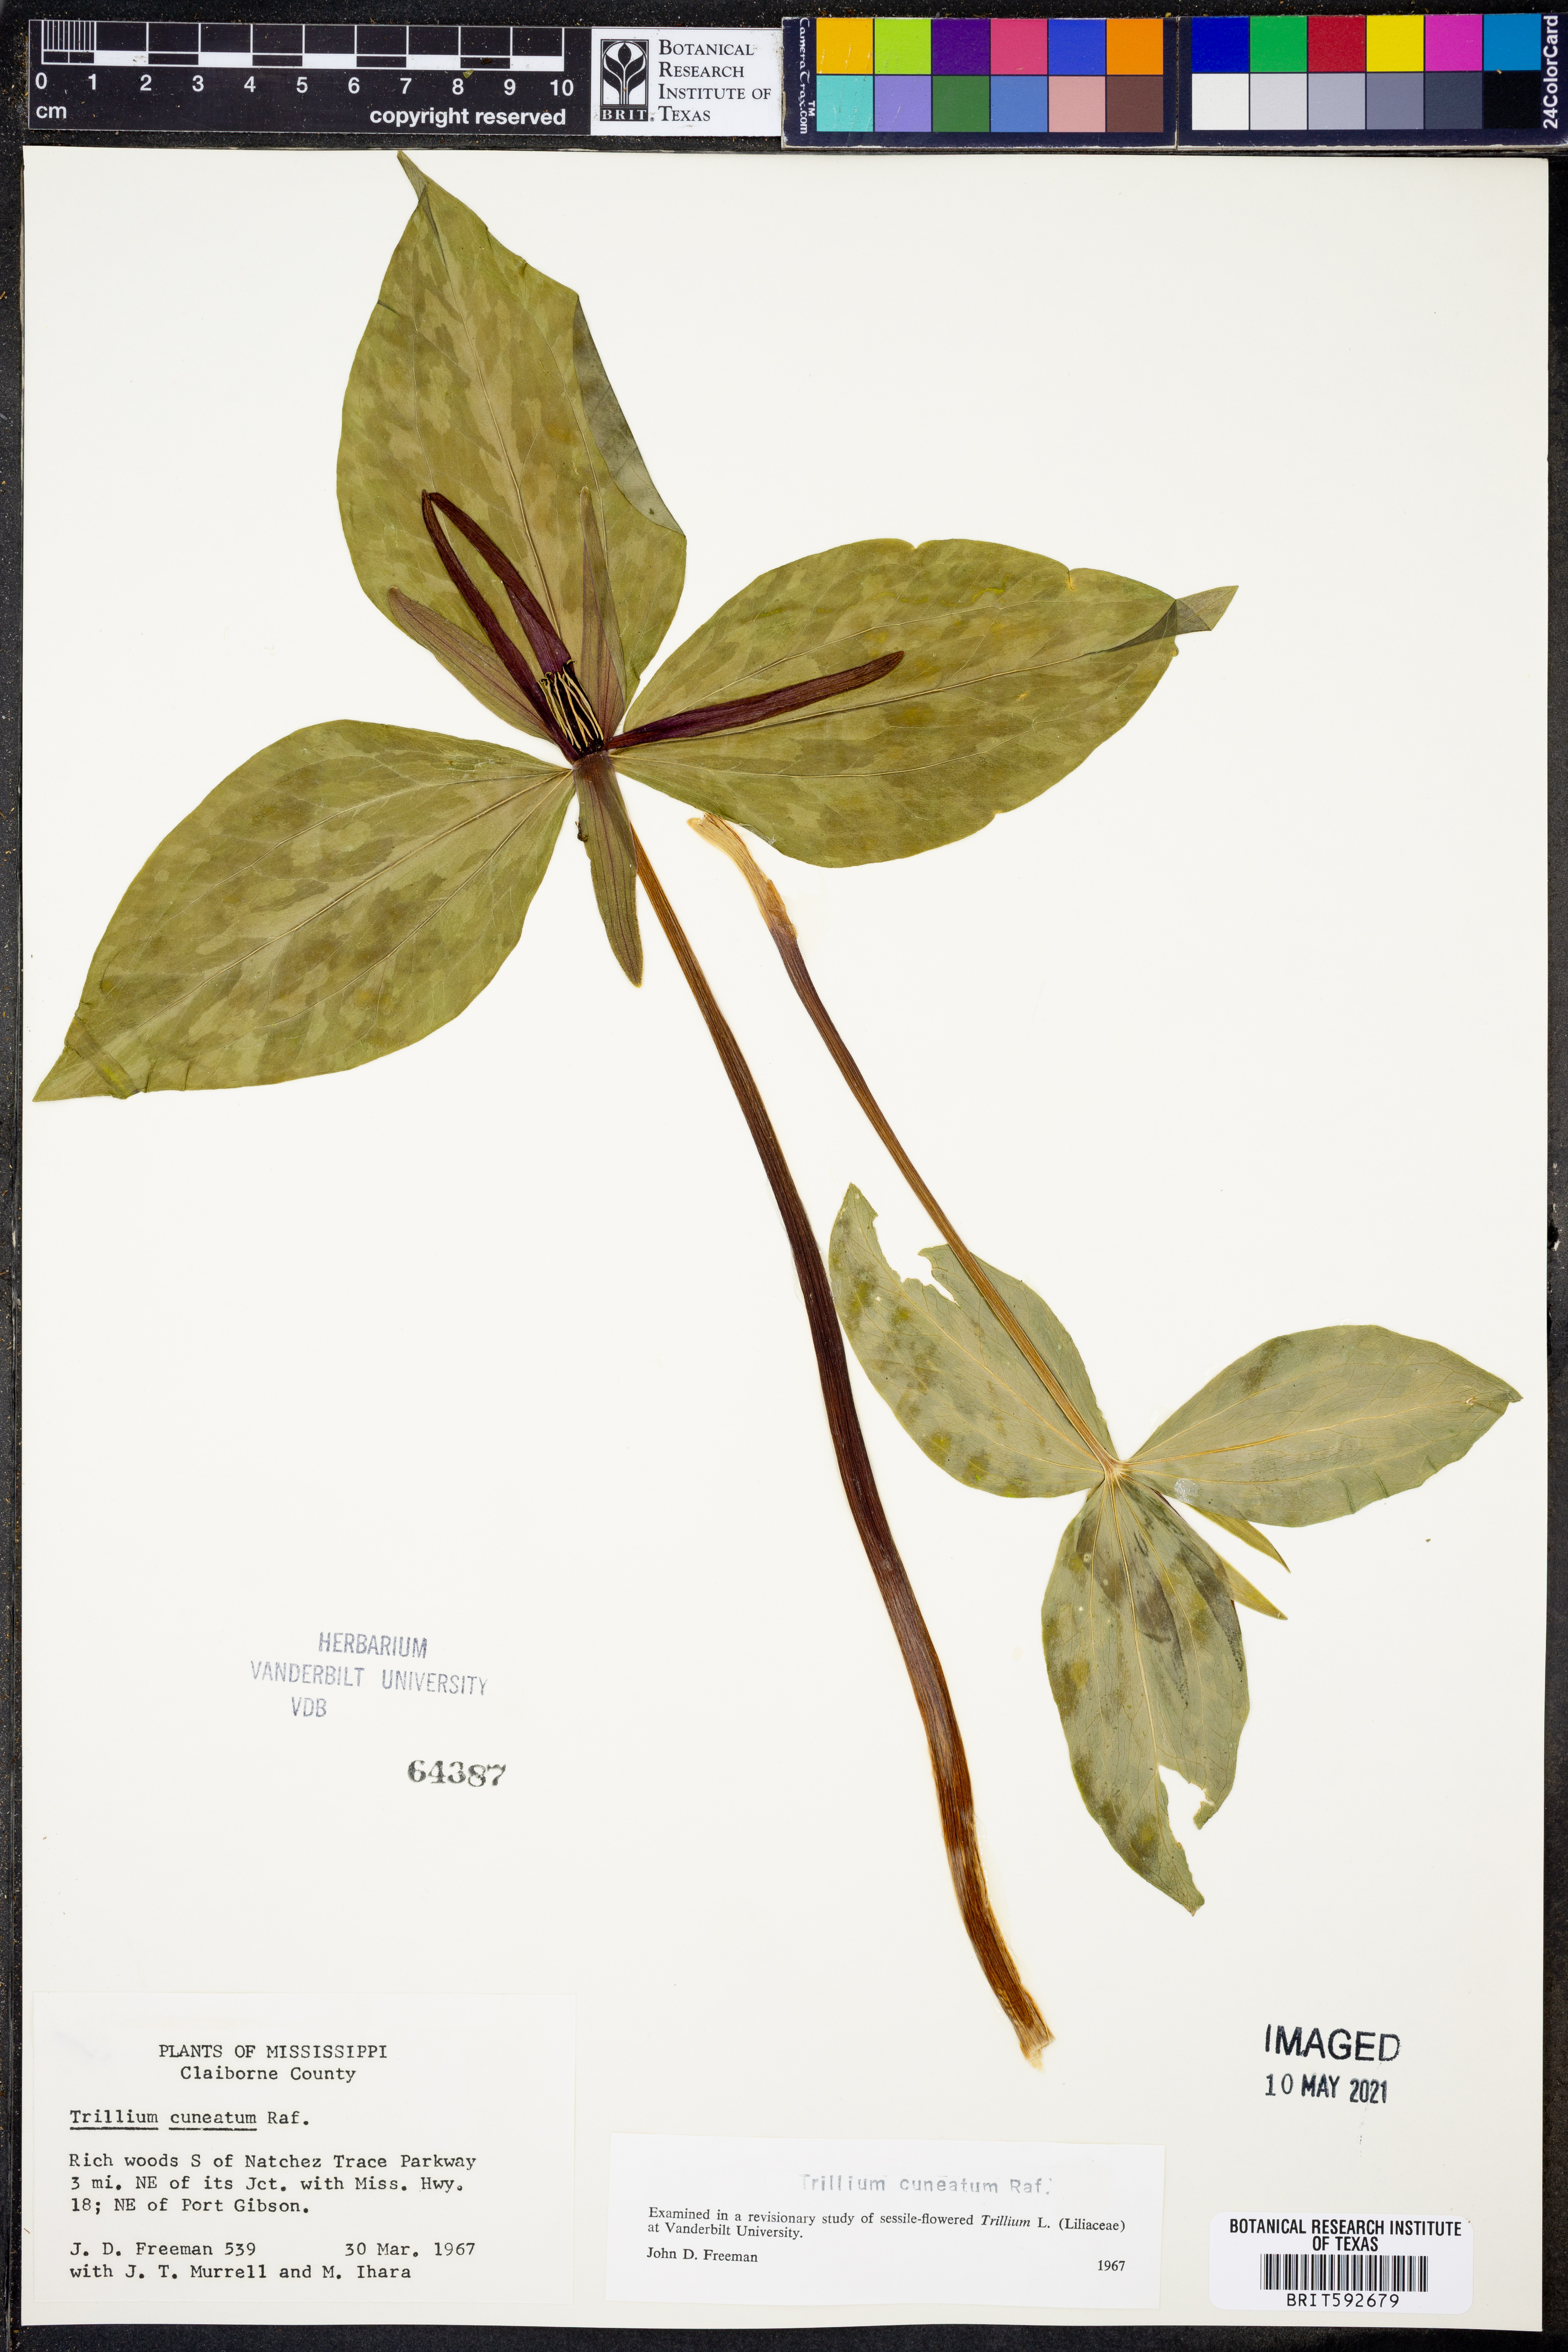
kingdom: Plantae
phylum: Tracheophyta
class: Liliopsida
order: Liliales
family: Melanthiaceae
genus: Trillium
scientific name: Trillium cuneatum
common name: Cuneate trillium
